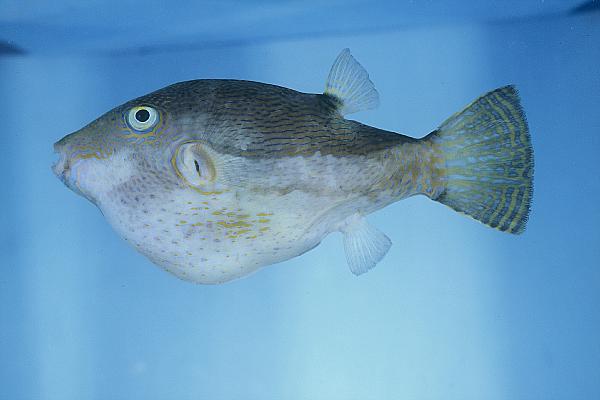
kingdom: Animalia
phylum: Chordata
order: Tetraodontiformes
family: Tetraodontidae
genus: Canthigaster
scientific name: Canthigaster rivulata
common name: Brown-lined puffer
